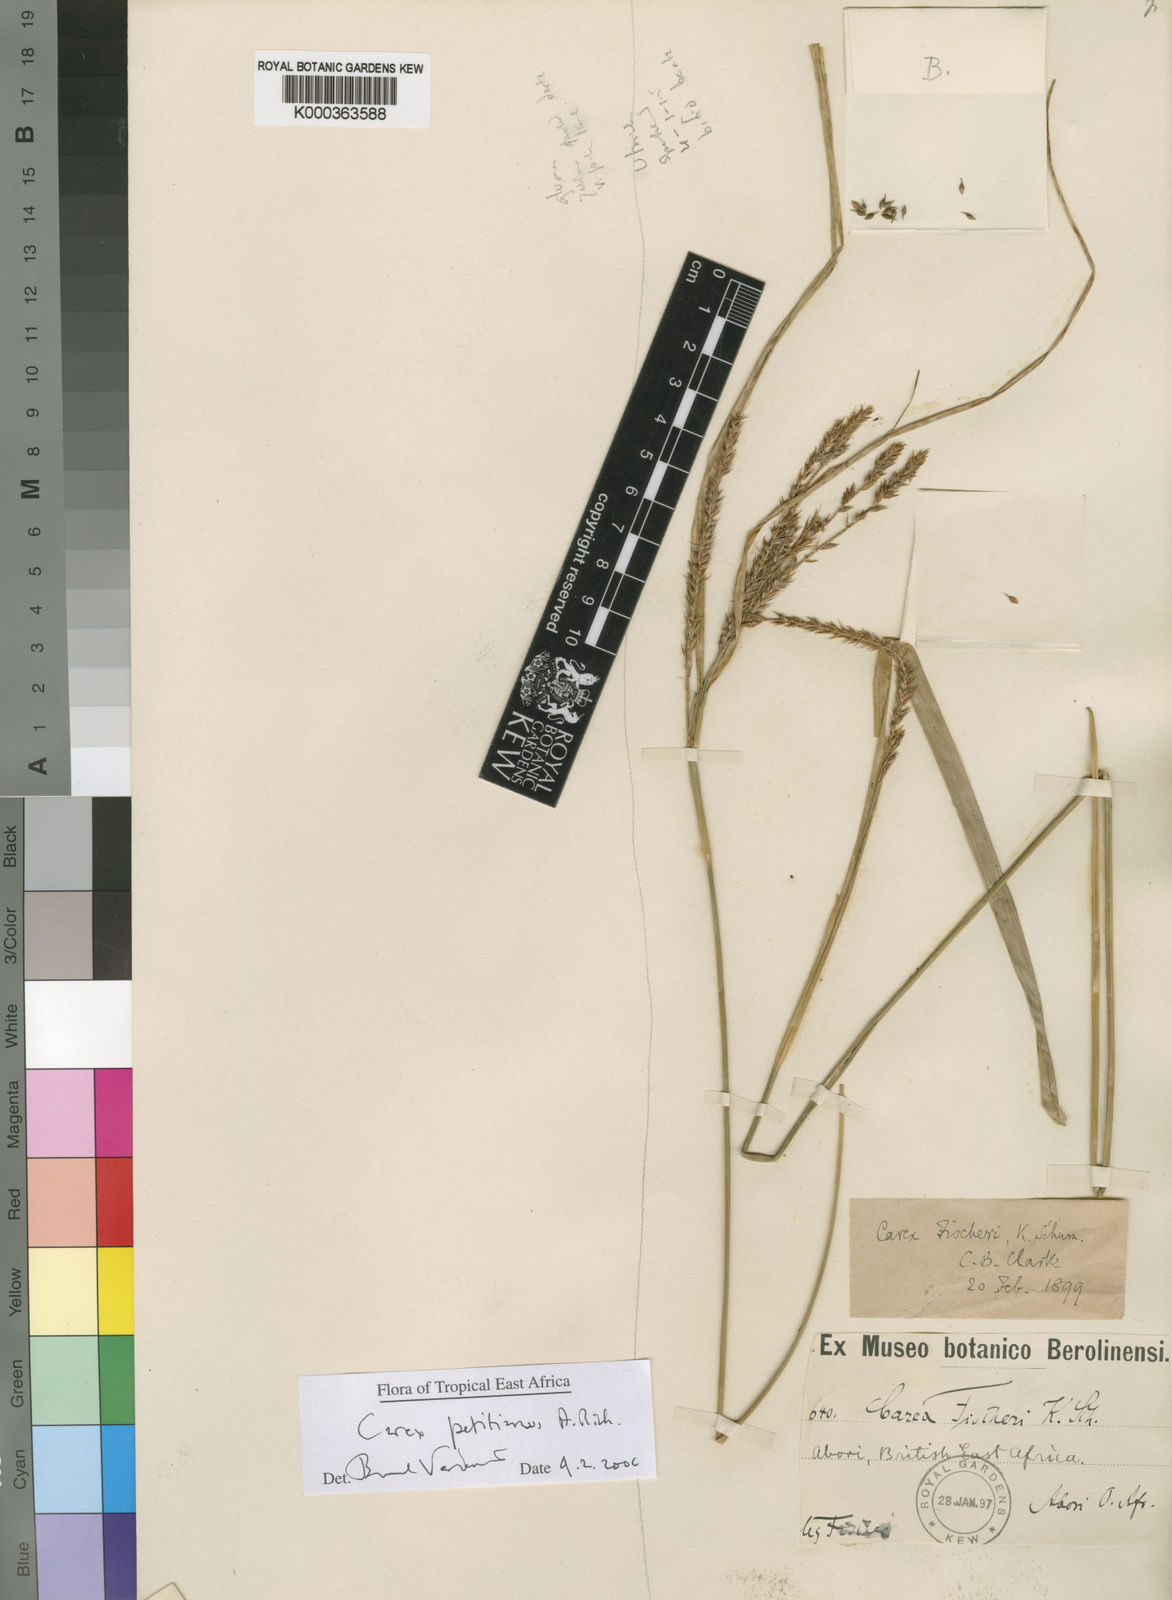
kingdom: Plantae
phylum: Tracheophyta
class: Liliopsida
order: Poales
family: Cyperaceae
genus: Carex
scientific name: Carex fischeri
